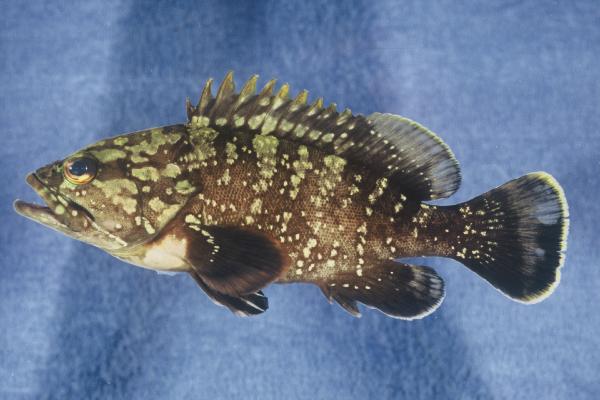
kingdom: Animalia
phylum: Chordata
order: Perciformes
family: Serranidae
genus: Epinephelus
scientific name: Epinephelus marginatus
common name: Dusky grouper
